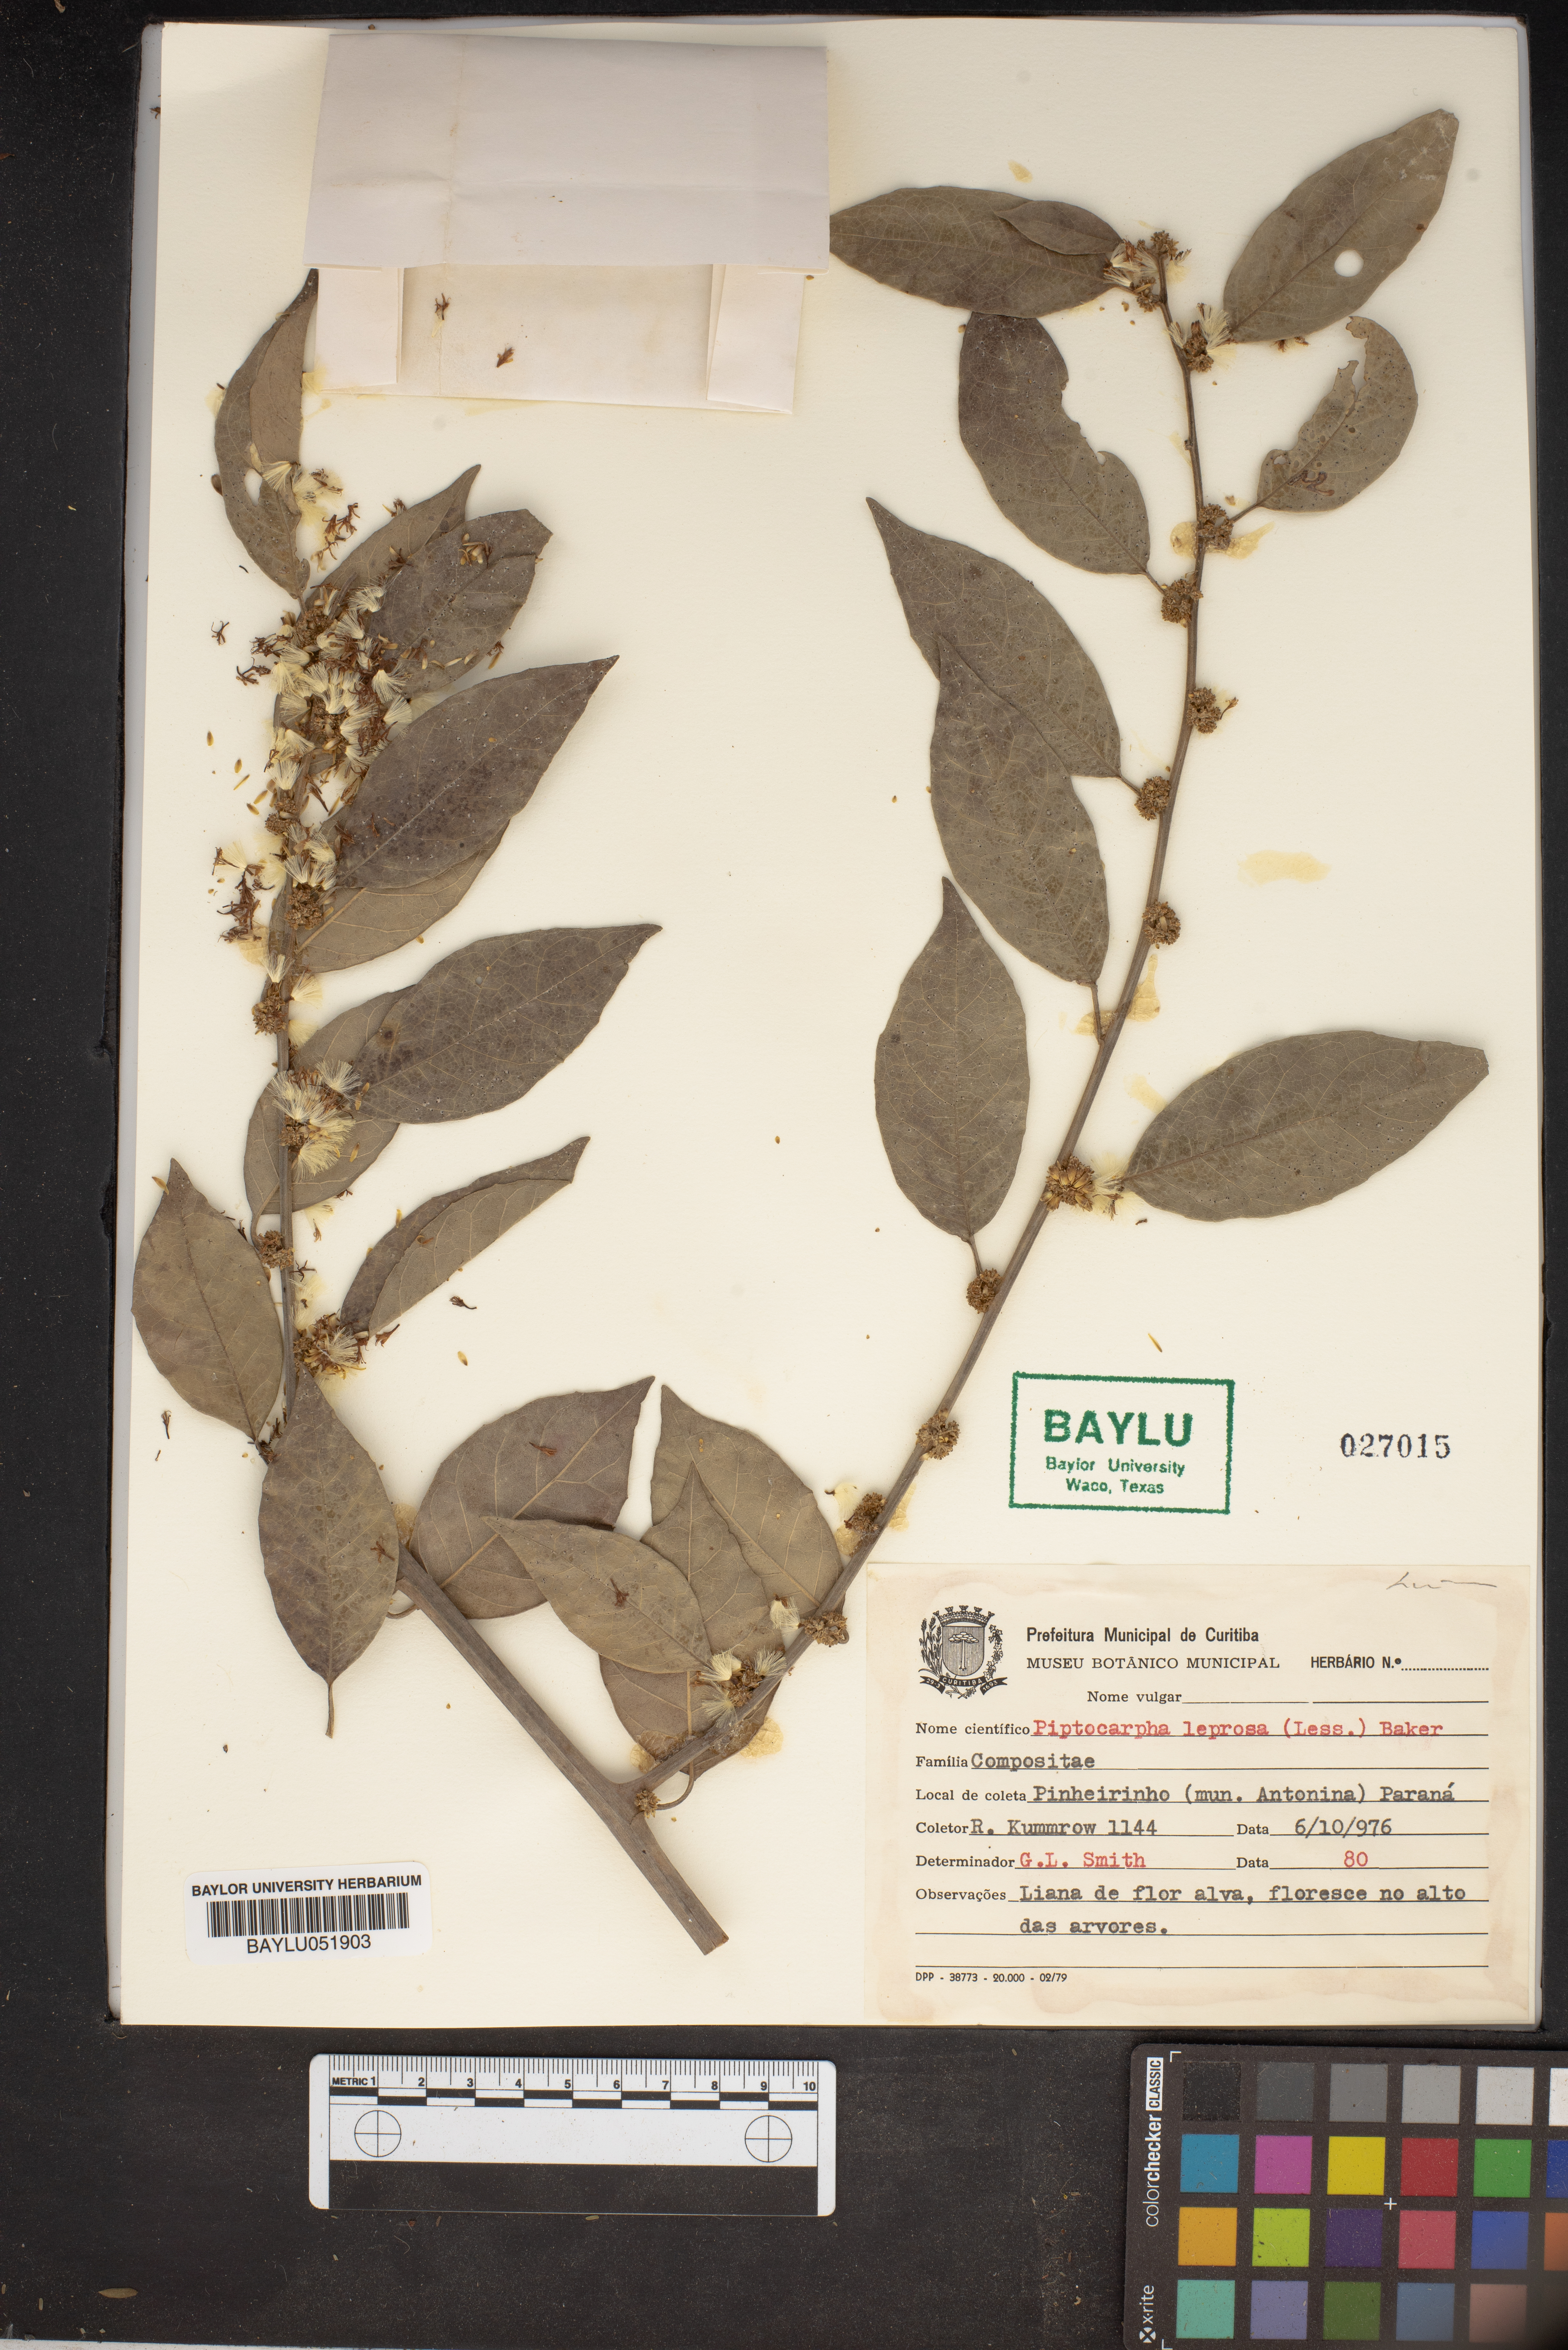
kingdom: Plantae
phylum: Tracheophyta
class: Magnoliopsida
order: Asterales
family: Asteraceae
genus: Piptocarpha
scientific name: Piptocarpha leprosa
